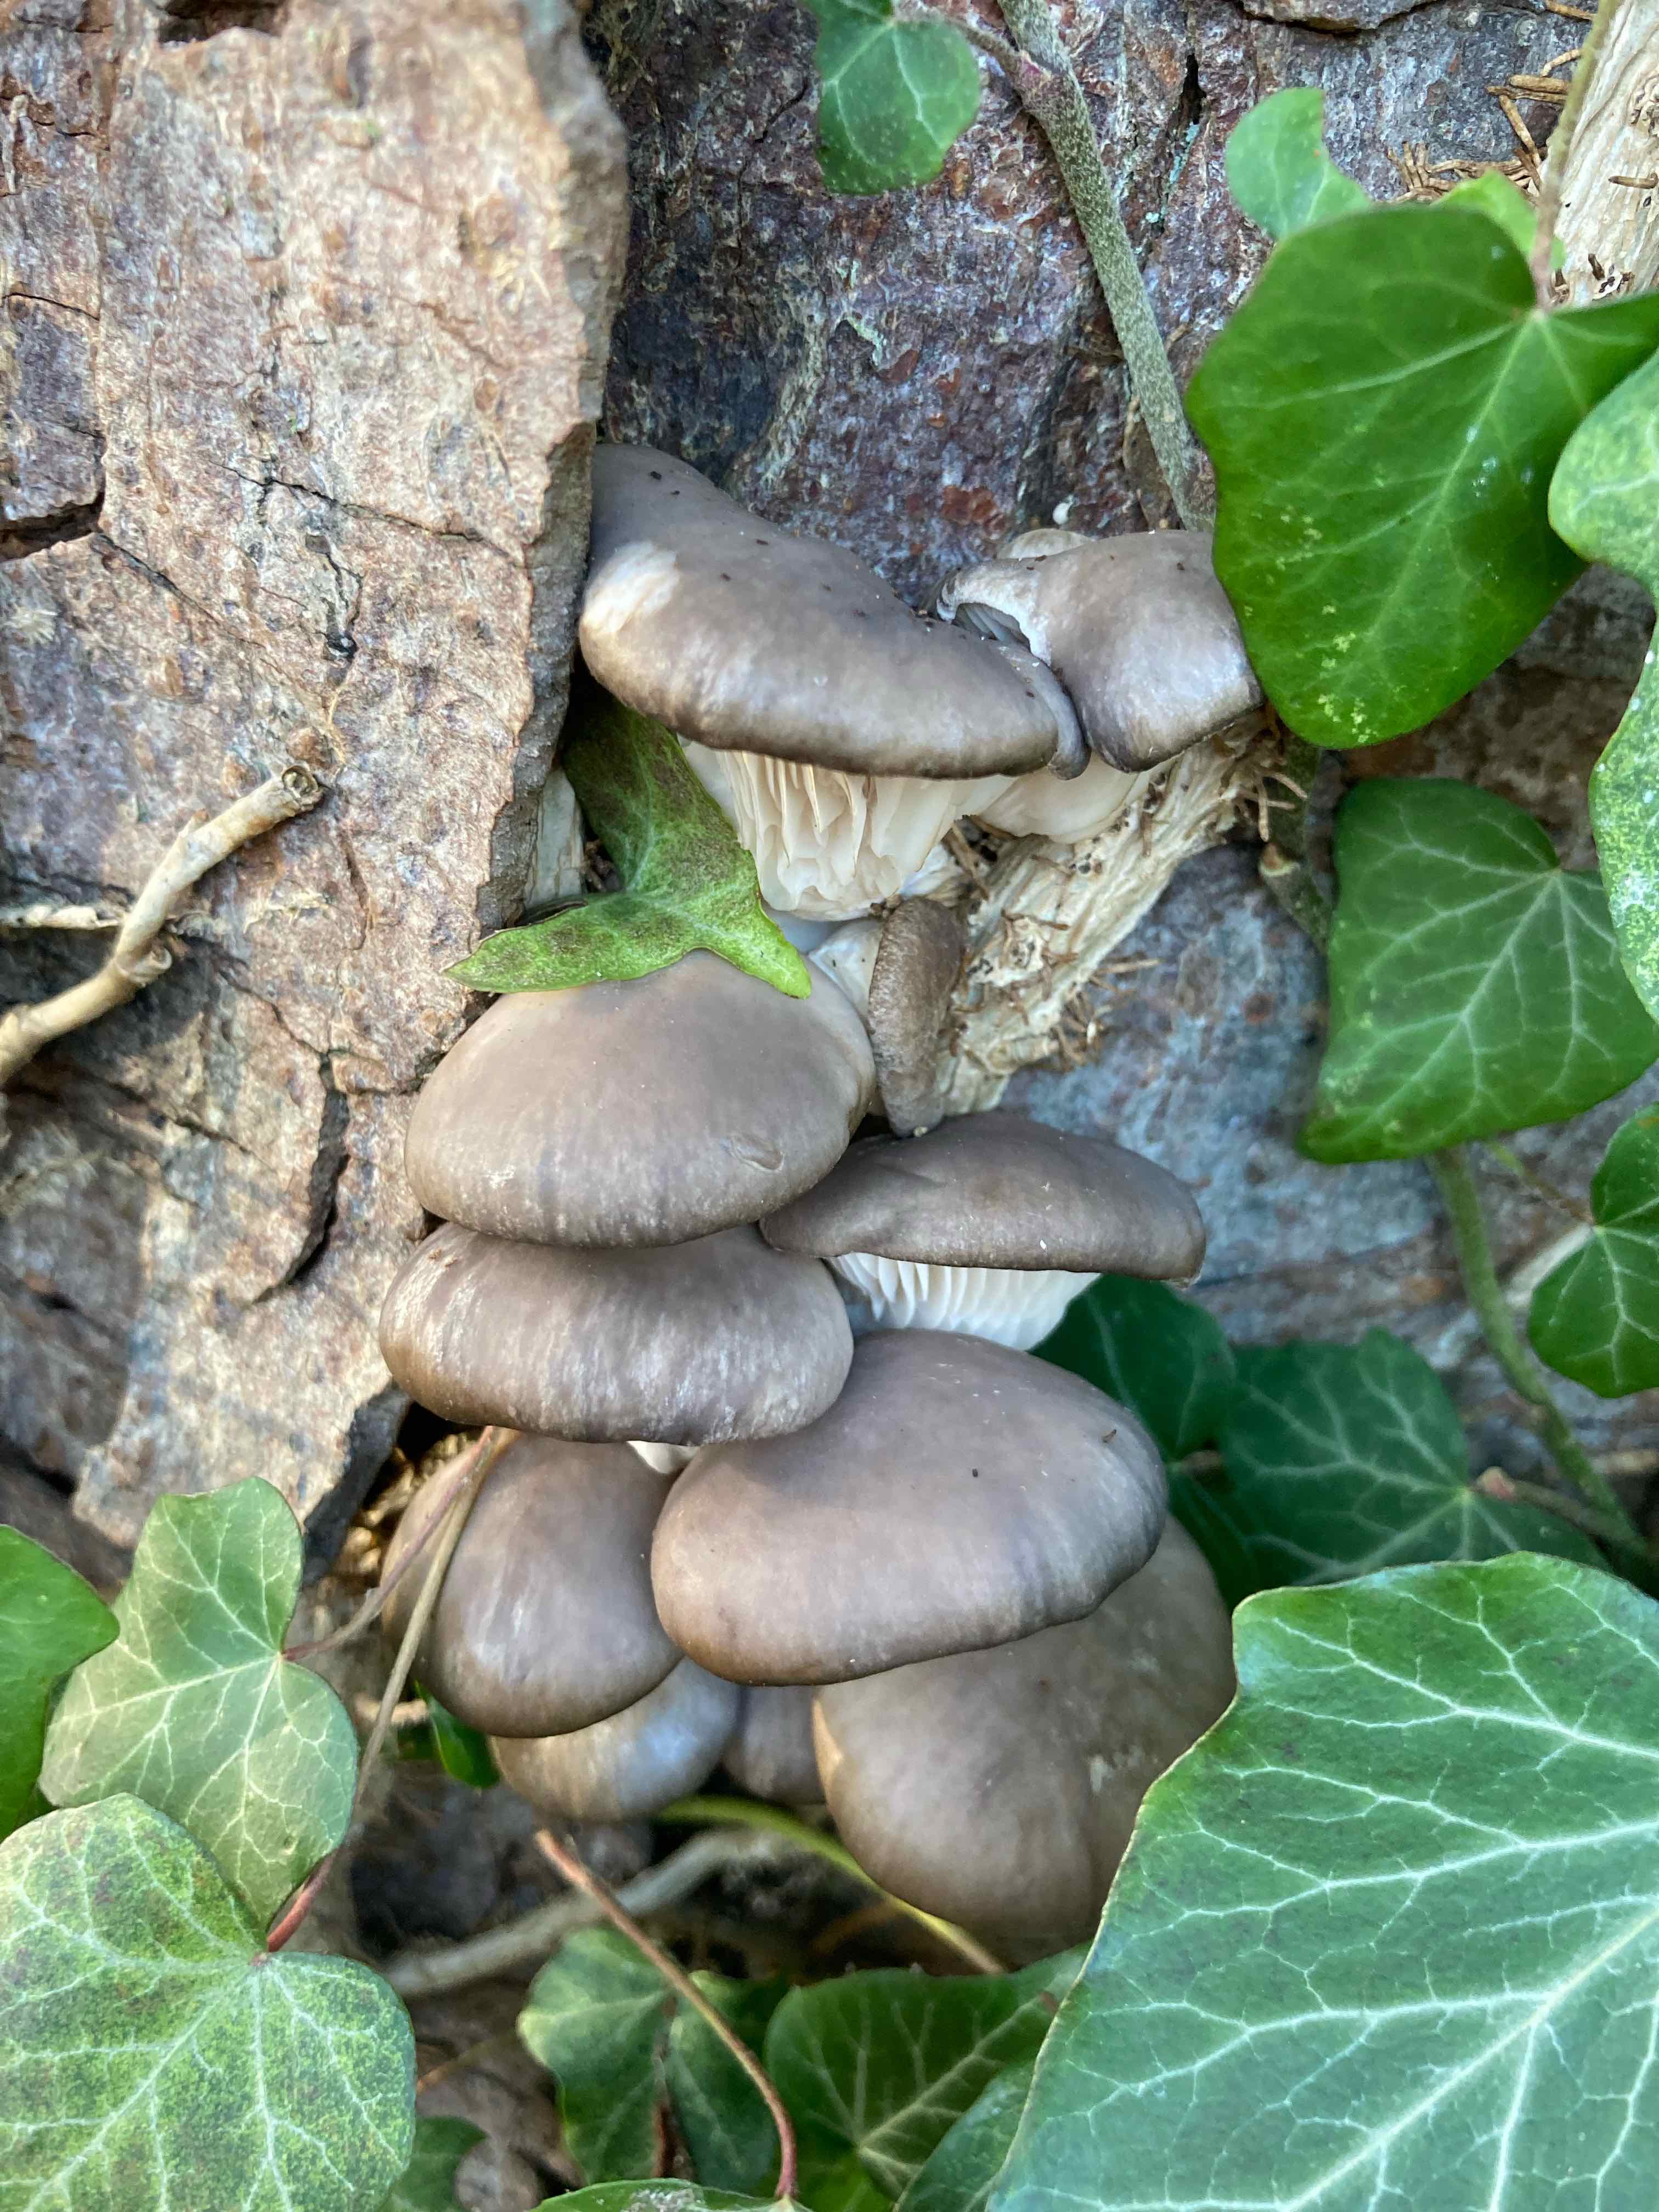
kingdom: Fungi
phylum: Basidiomycota
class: Agaricomycetes
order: Agaricales
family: Pleurotaceae
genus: Pleurotus
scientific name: Pleurotus ostreatus
